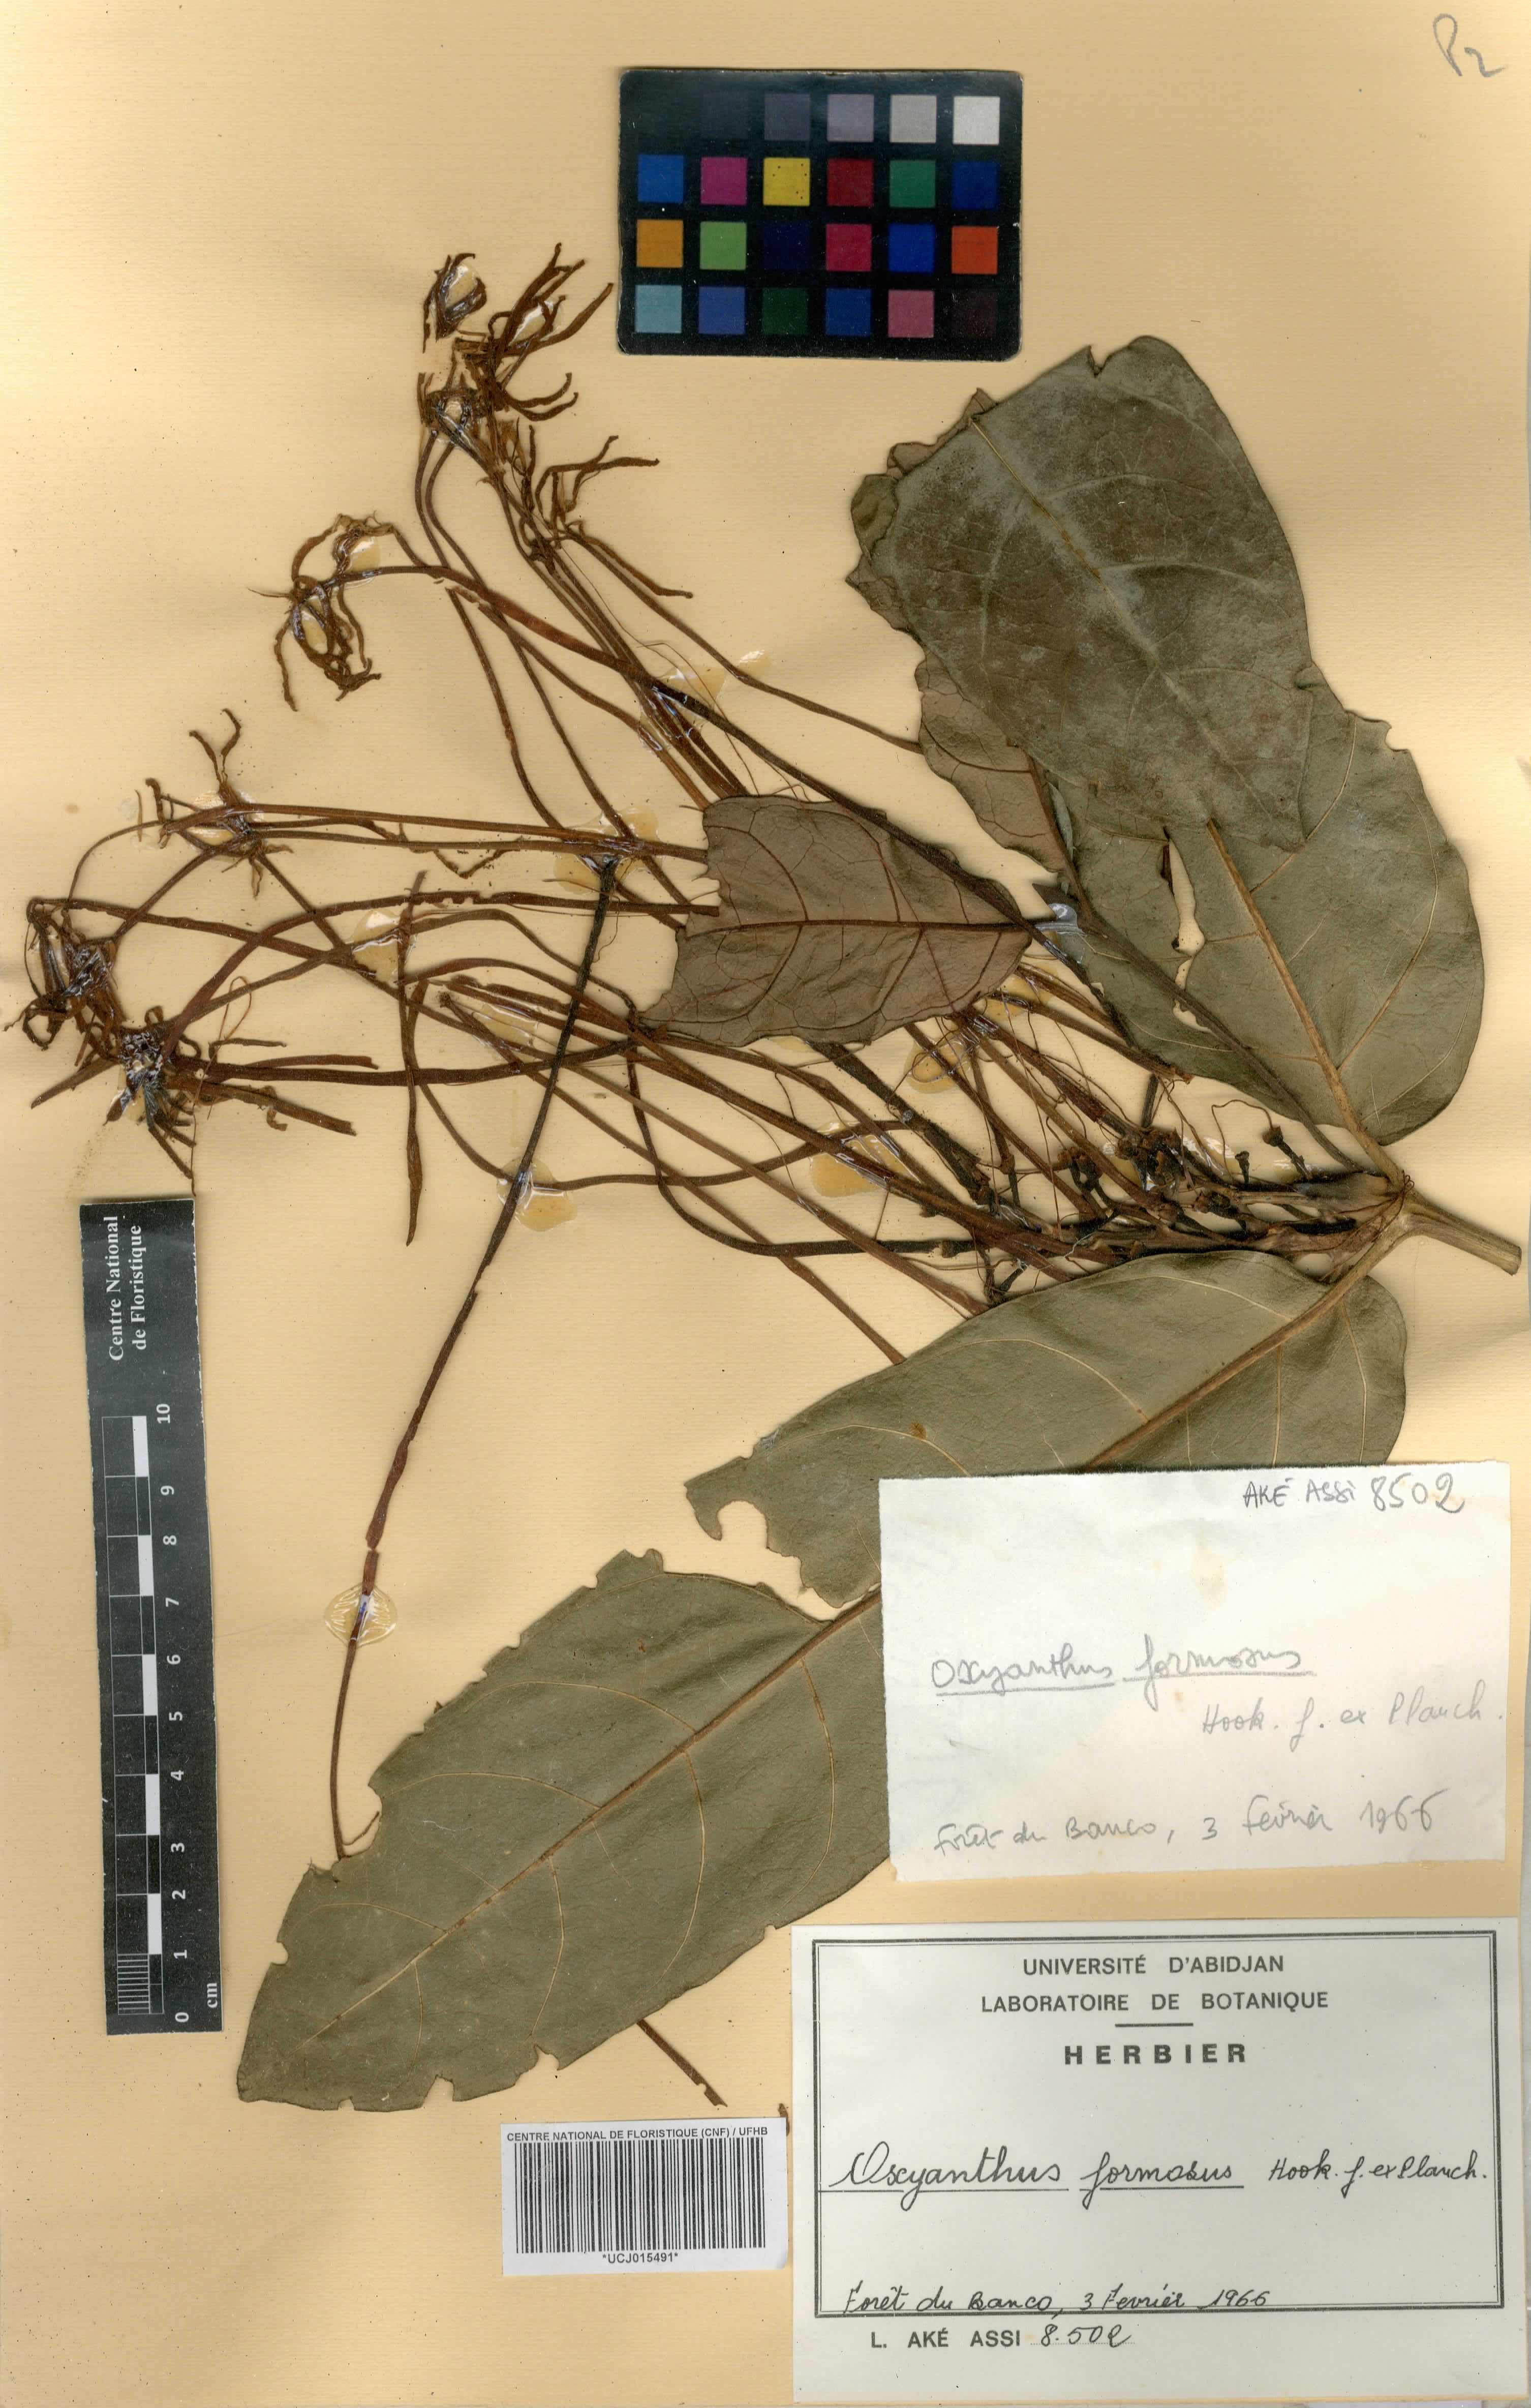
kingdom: Plantae
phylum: Tracheophyta
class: Magnoliopsida
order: Gentianales
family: Rubiaceae
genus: Oxyanthus
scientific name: Oxyanthus formosus
